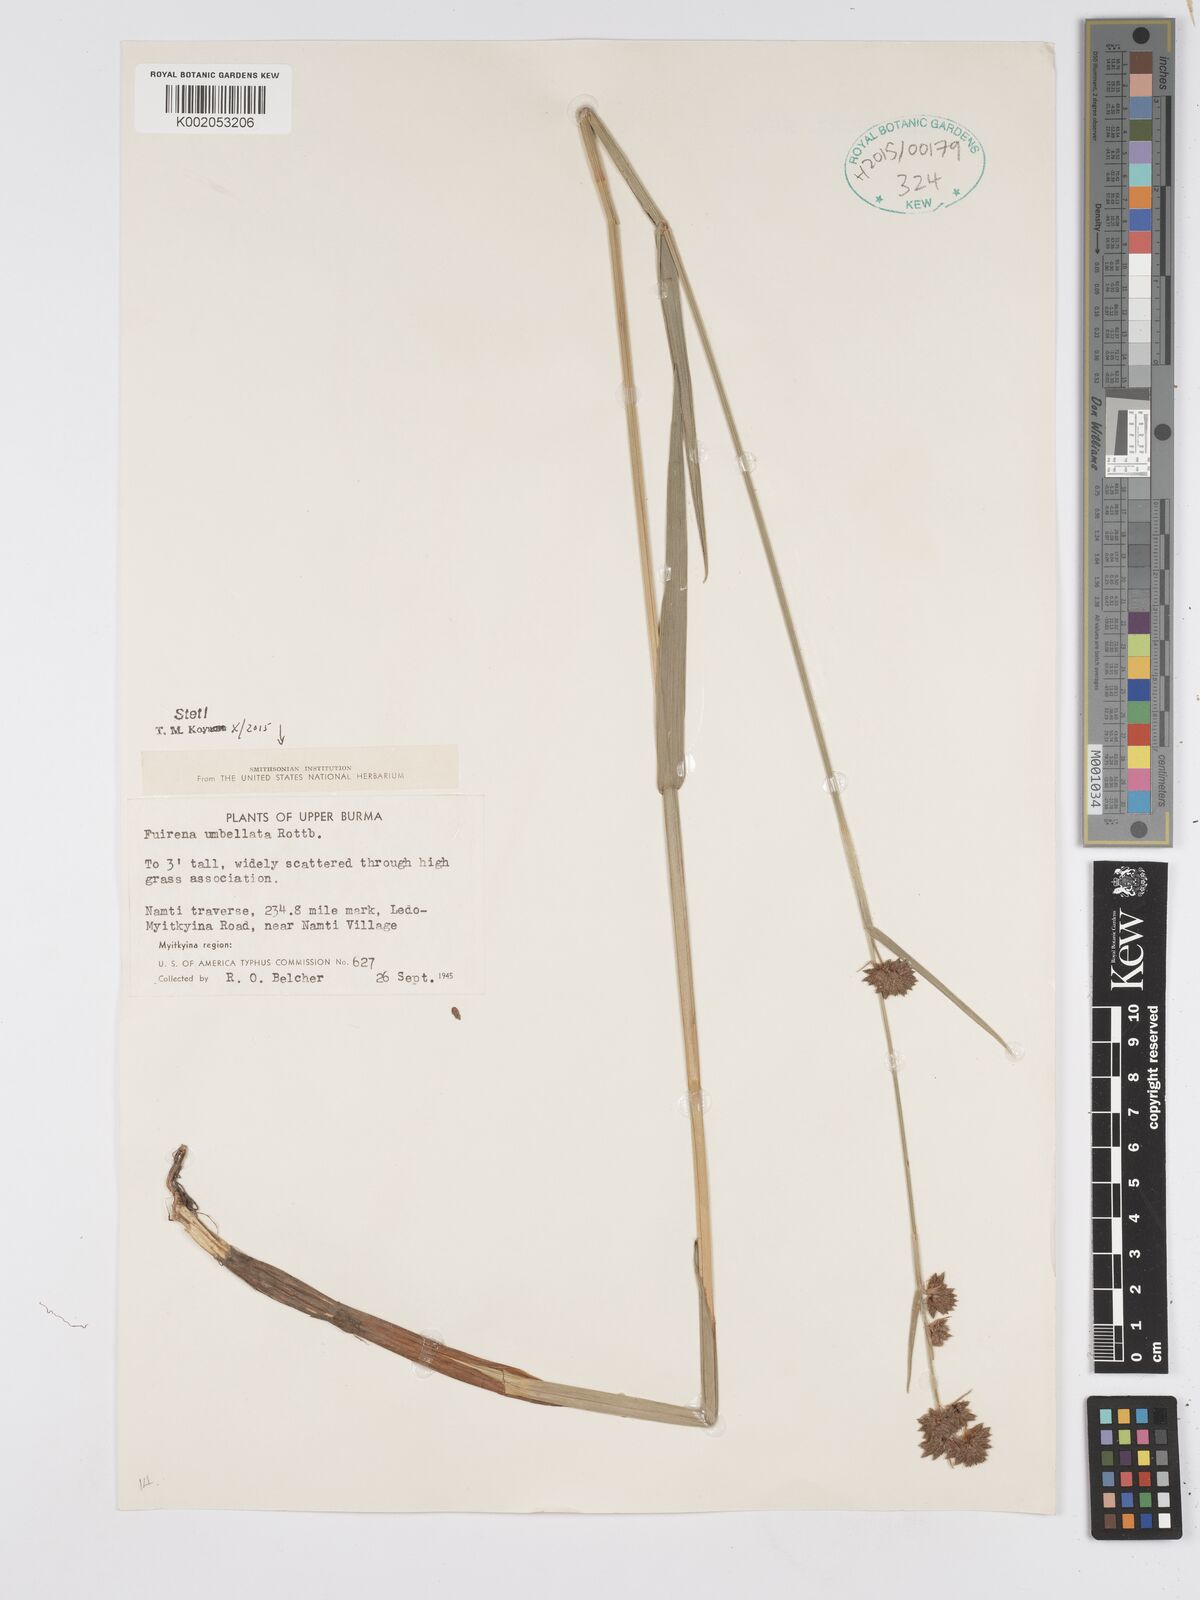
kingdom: Plantae
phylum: Tracheophyta
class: Liliopsida
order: Poales
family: Cyperaceae
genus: Fuirena
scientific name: Fuirena umbellata
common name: Yefen
